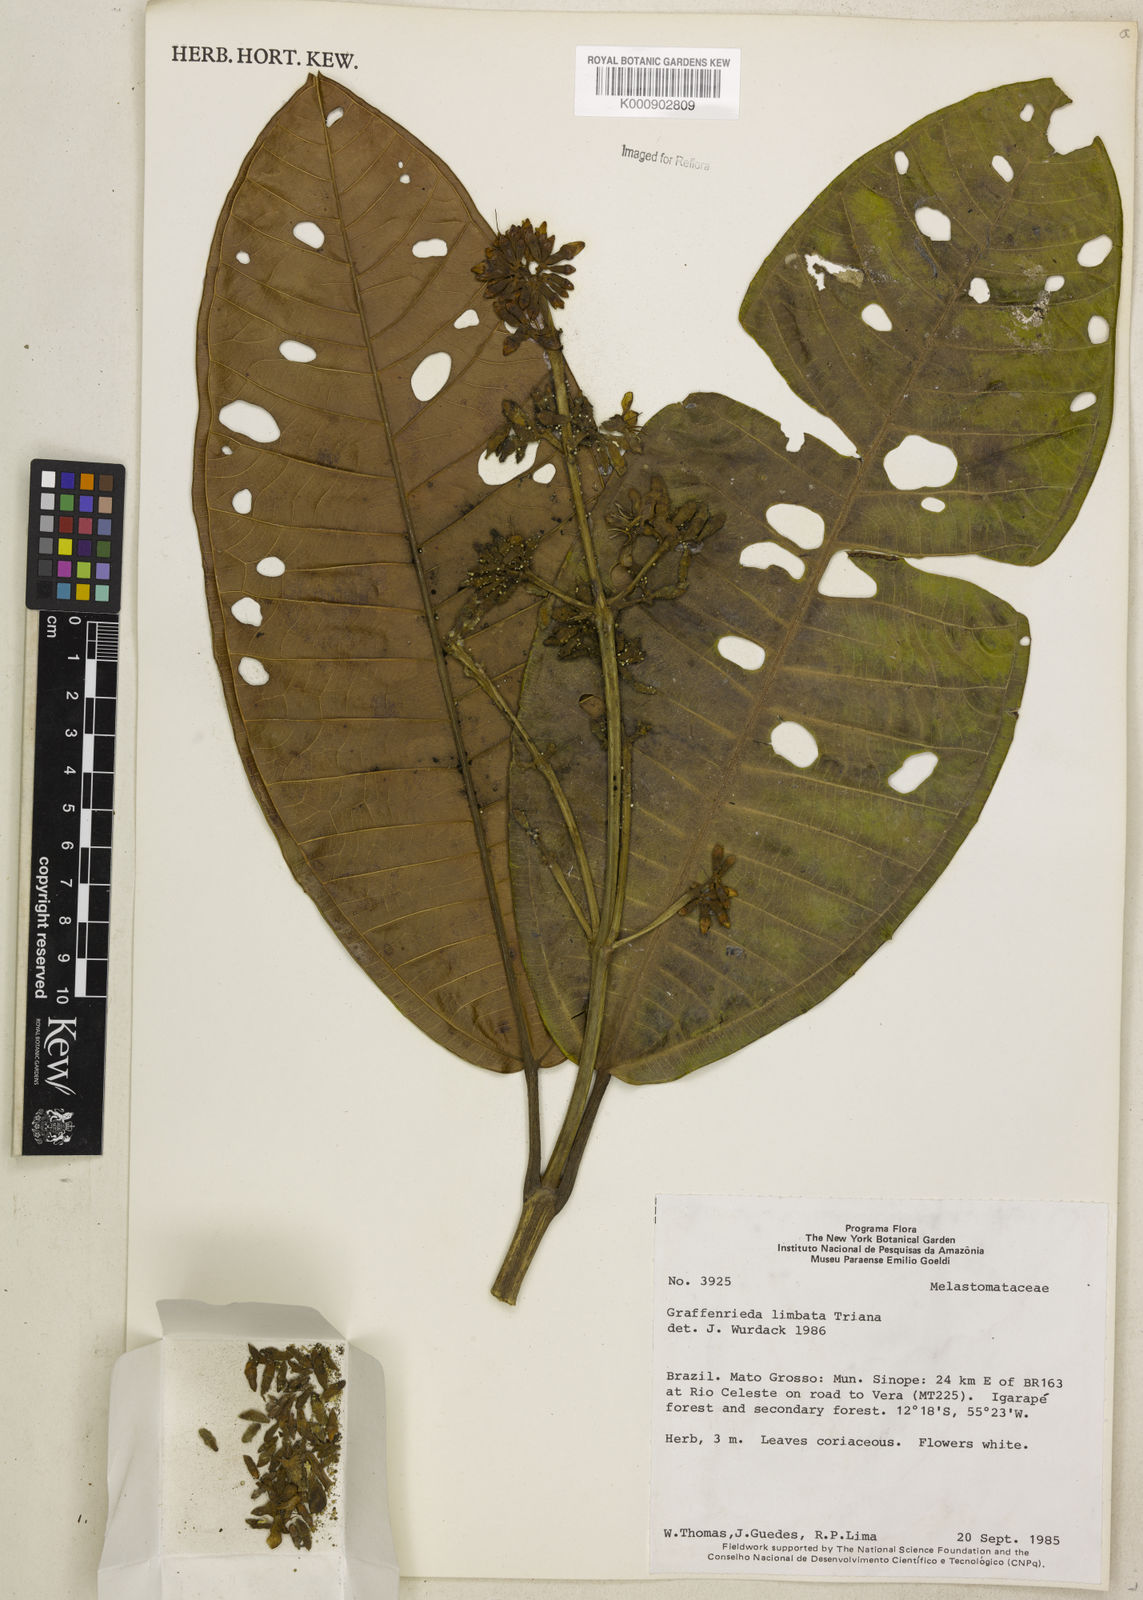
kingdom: Plantae
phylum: Tracheophyta
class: Magnoliopsida
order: Myrtales
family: Melastomataceae
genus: Graffenrieda
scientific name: Graffenrieda limbata
